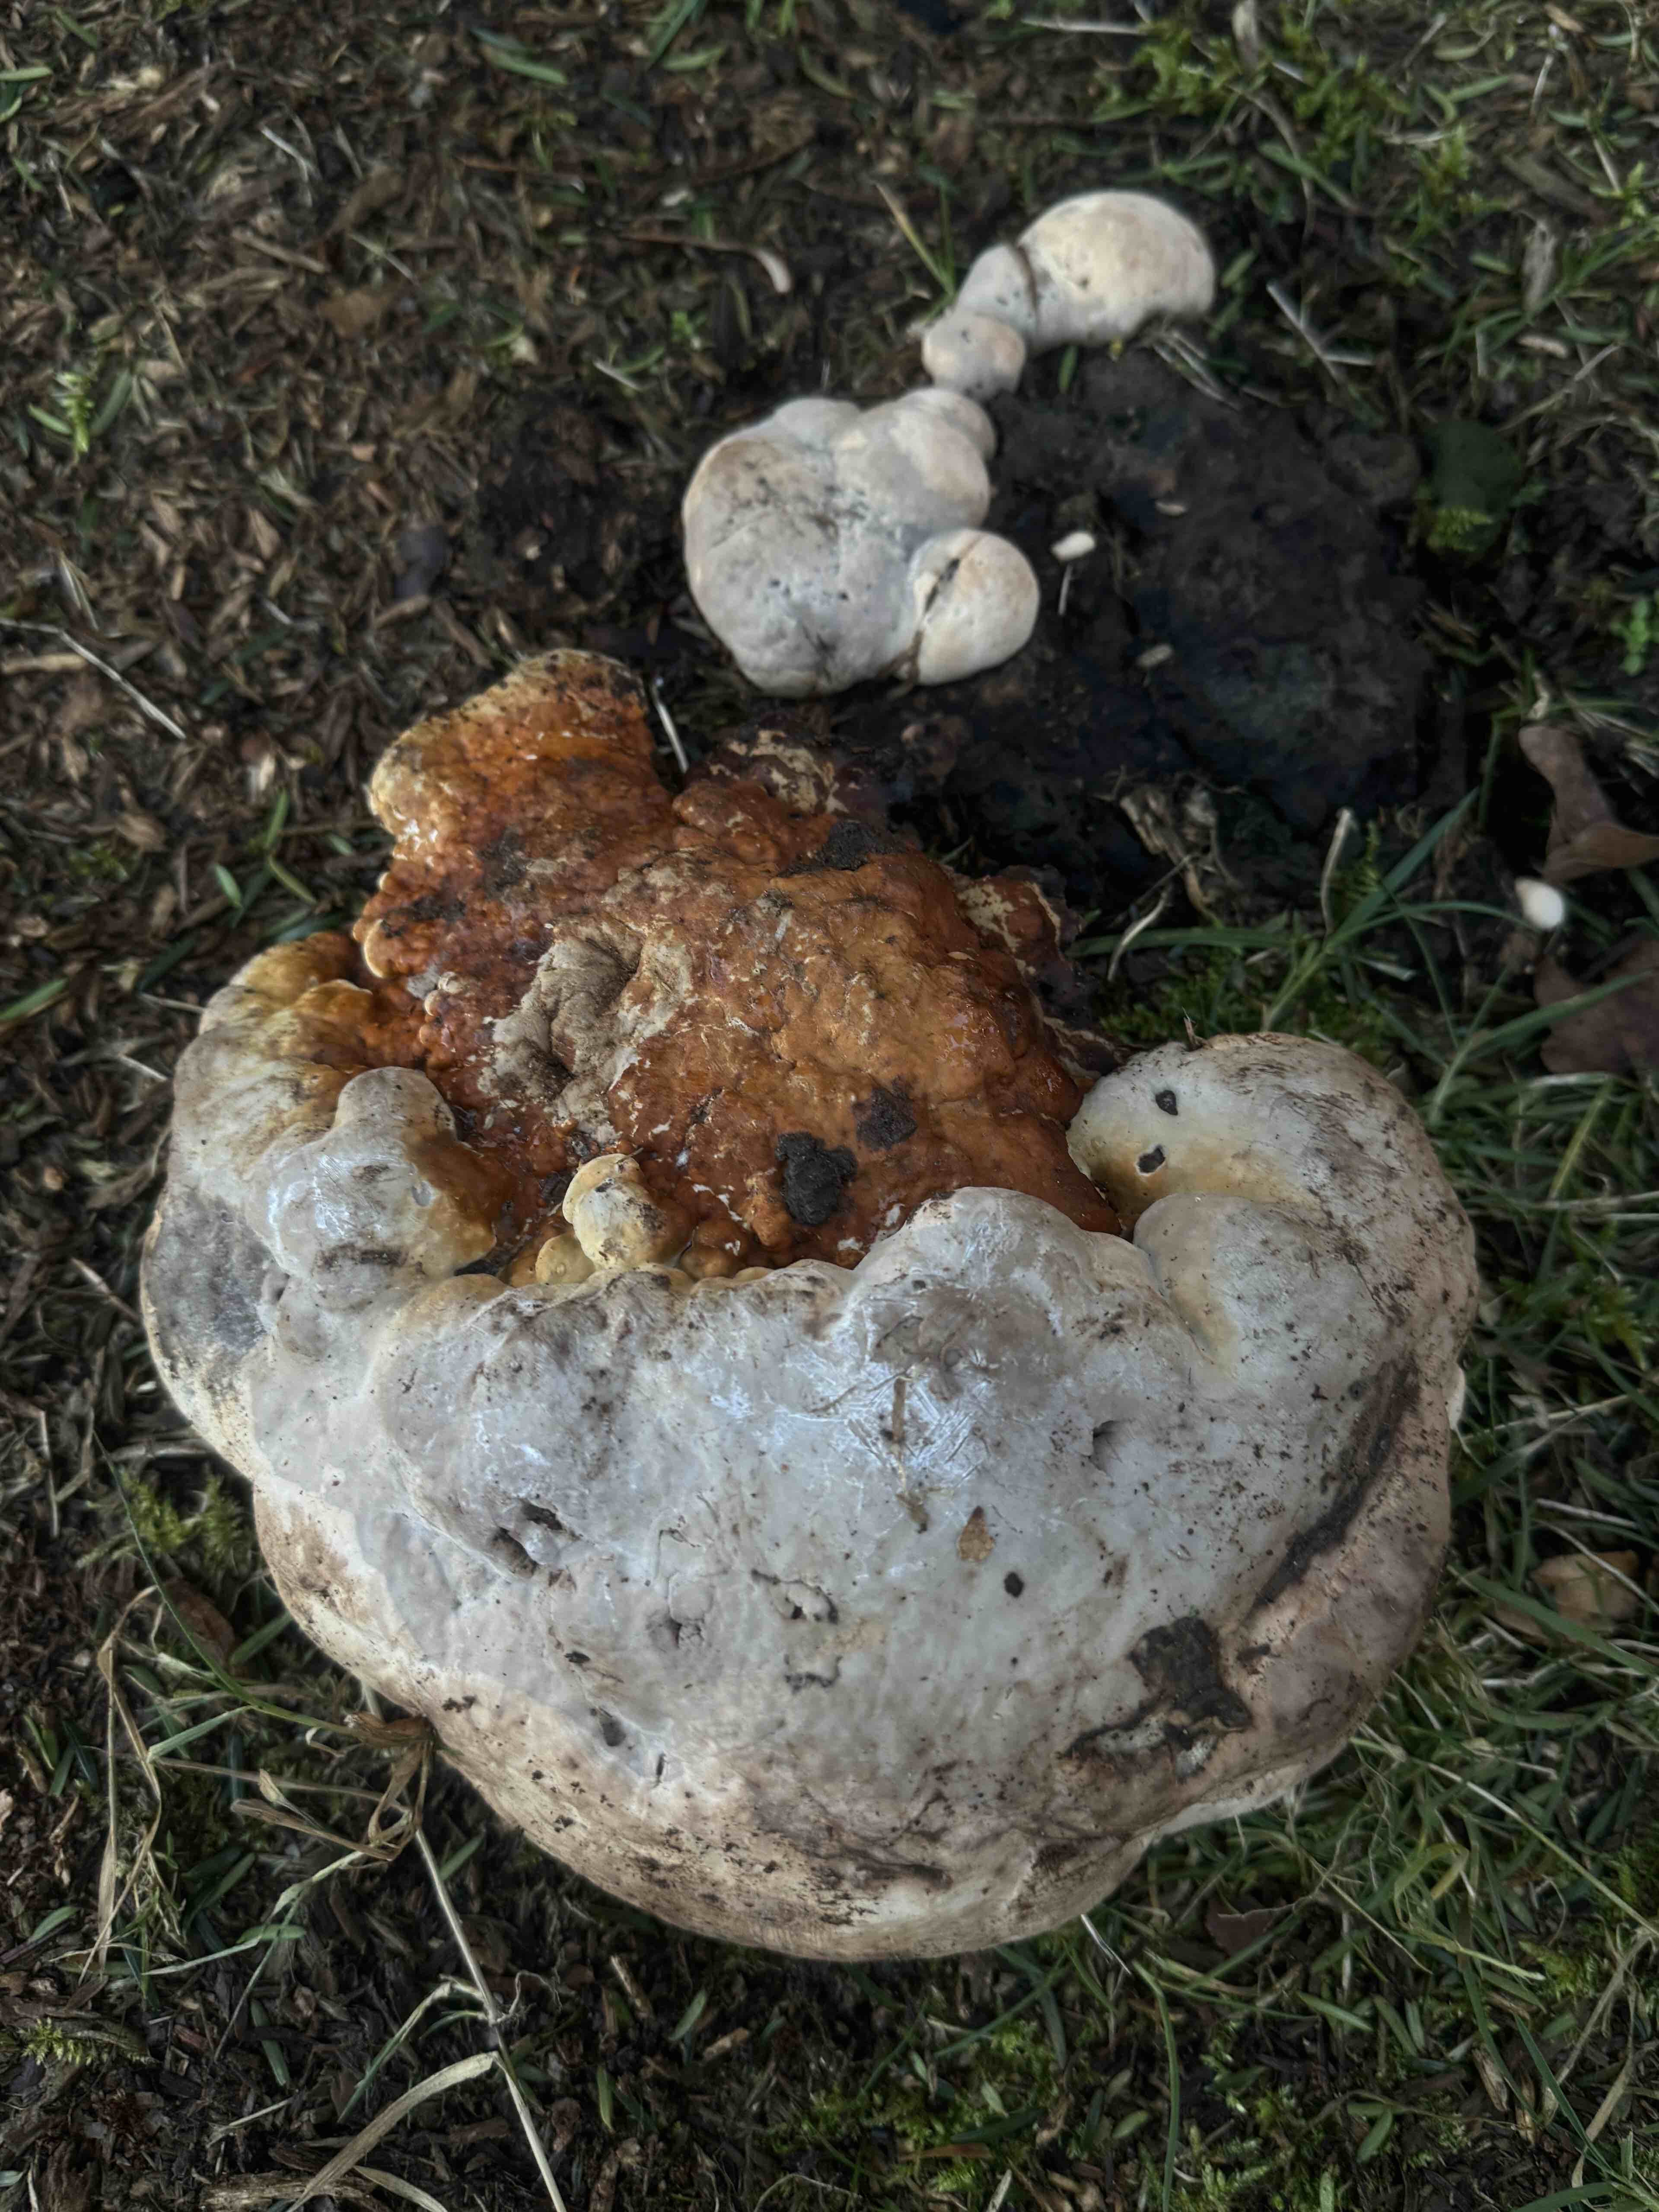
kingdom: Fungi
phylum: Basidiomycota
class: Agaricomycetes
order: Polyporales
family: Fomitopsidaceae
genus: Fomitopsis
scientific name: Fomitopsis pinicola
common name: randbæltet hovporesvamp
